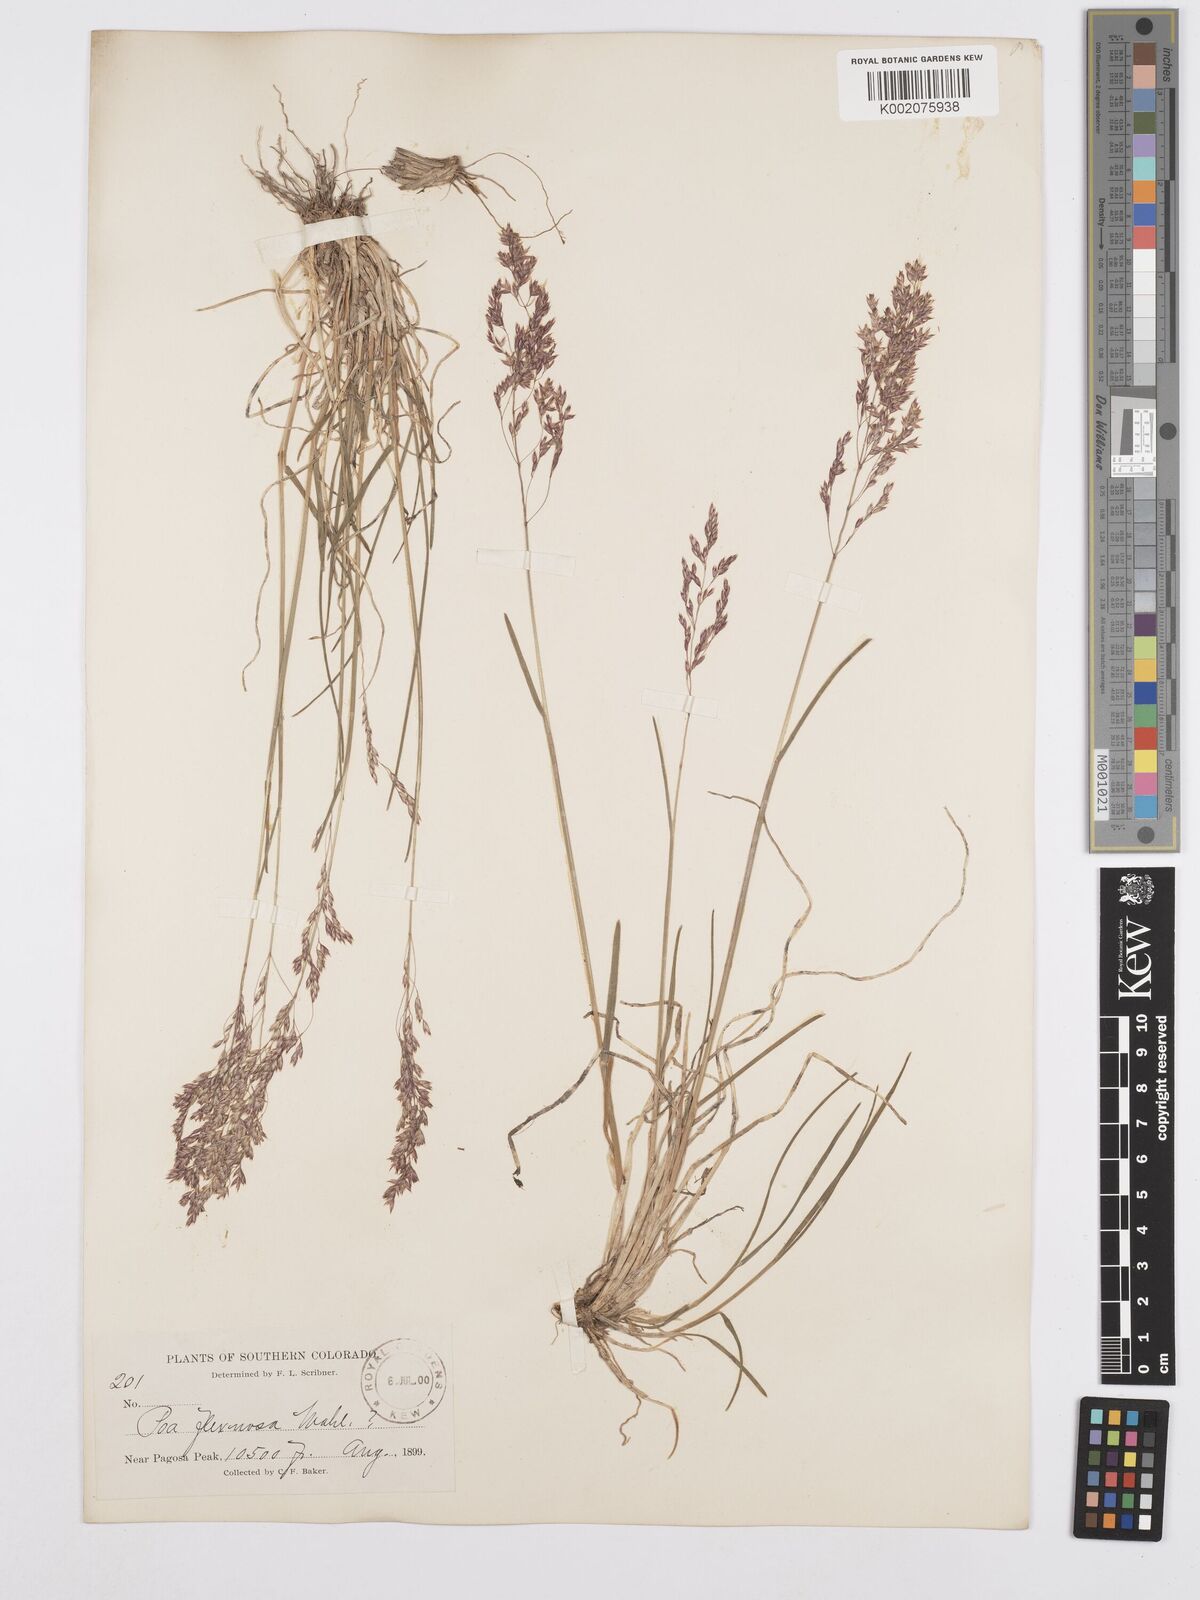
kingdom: Plantae
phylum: Tracheophyta
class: Liliopsida
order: Poales
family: Poaceae
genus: Poa
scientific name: Poa autumnalis
